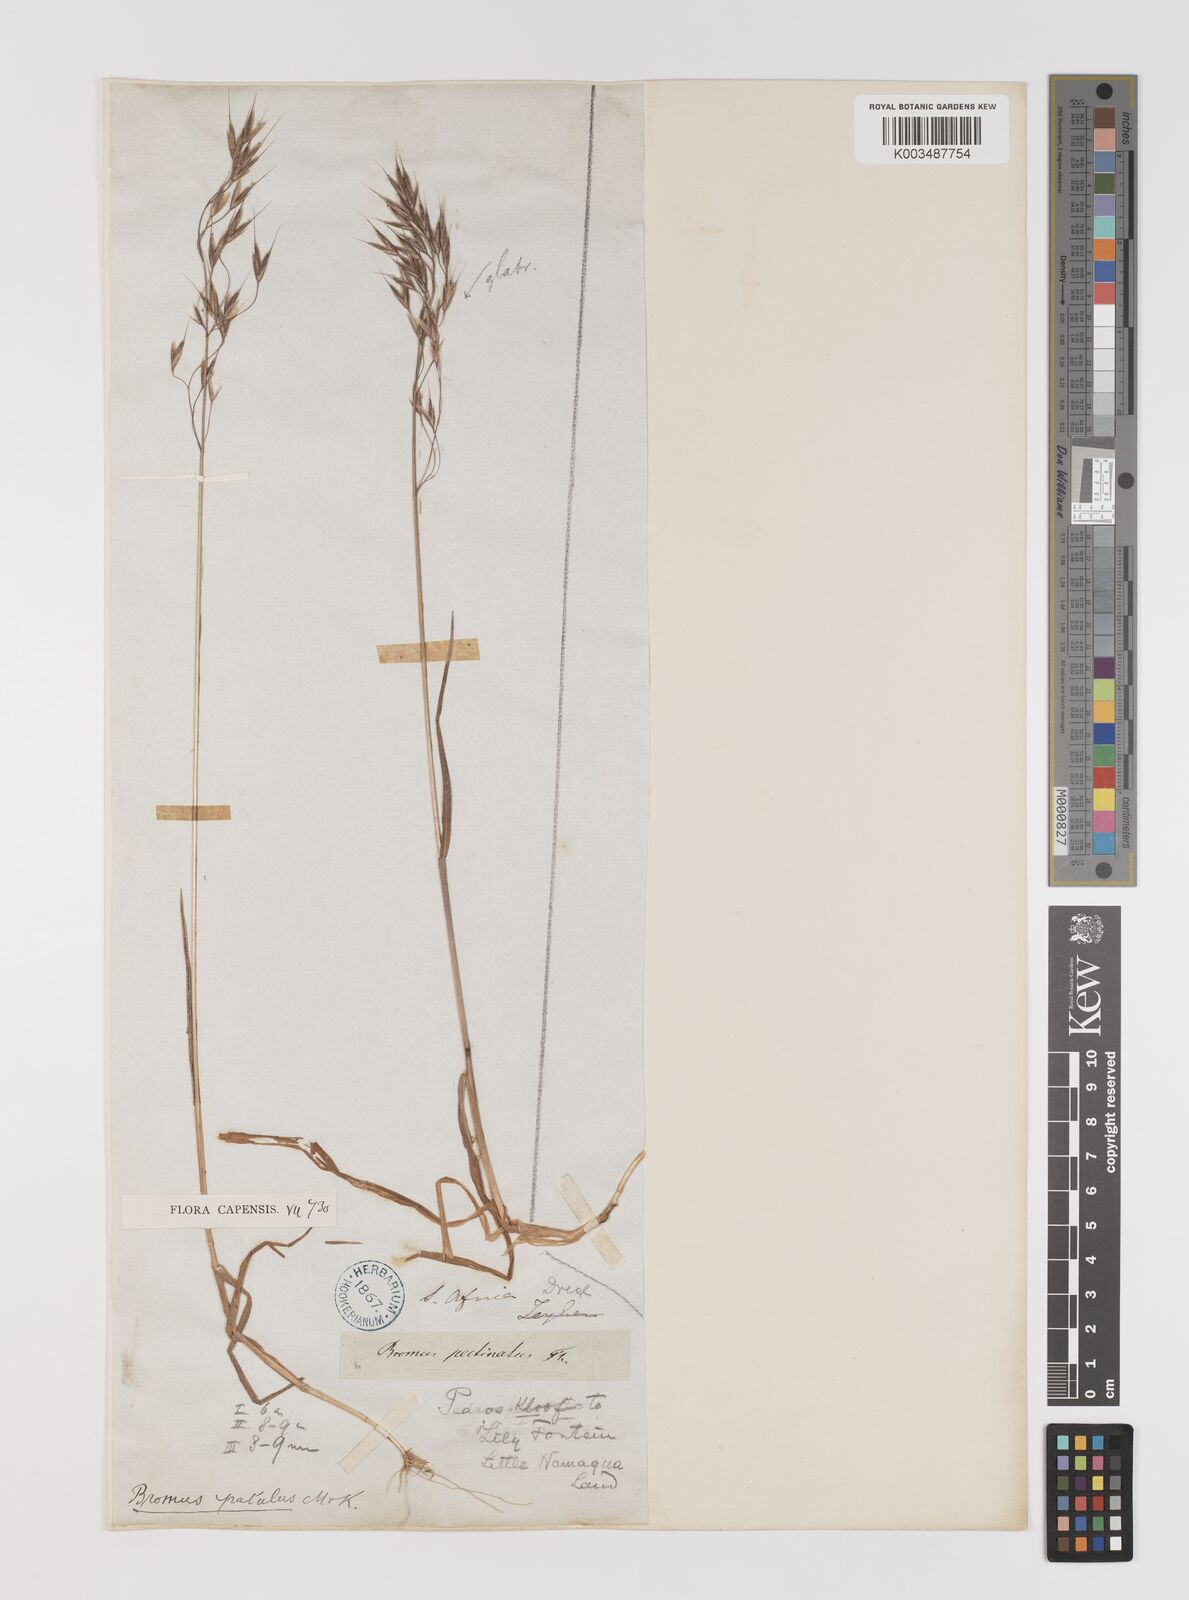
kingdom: Plantae
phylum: Tracheophyta
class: Liliopsida
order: Poales
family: Poaceae
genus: Bromus
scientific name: Bromus pectinatus
